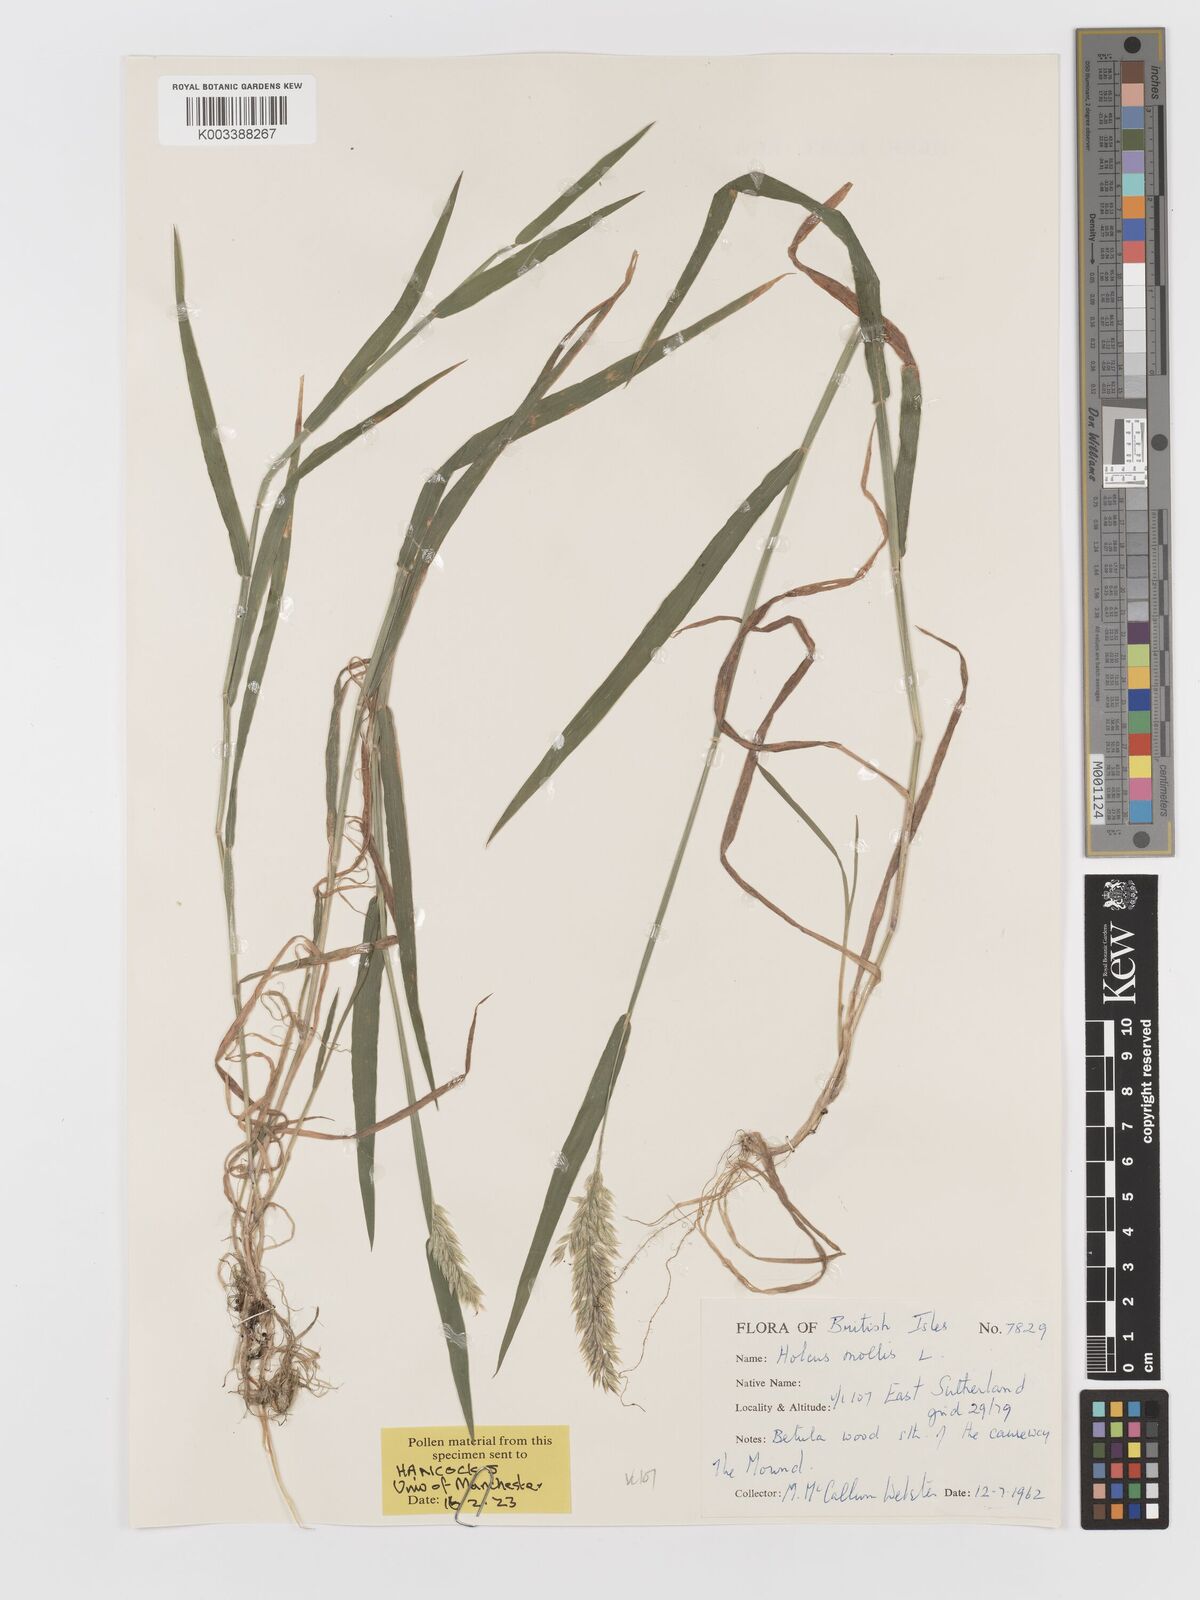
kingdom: Plantae
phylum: Tracheophyta
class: Liliopsida
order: Poales
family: Poaceae
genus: Holcus
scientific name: Holcus mollis
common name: Creeping velvetgrass
